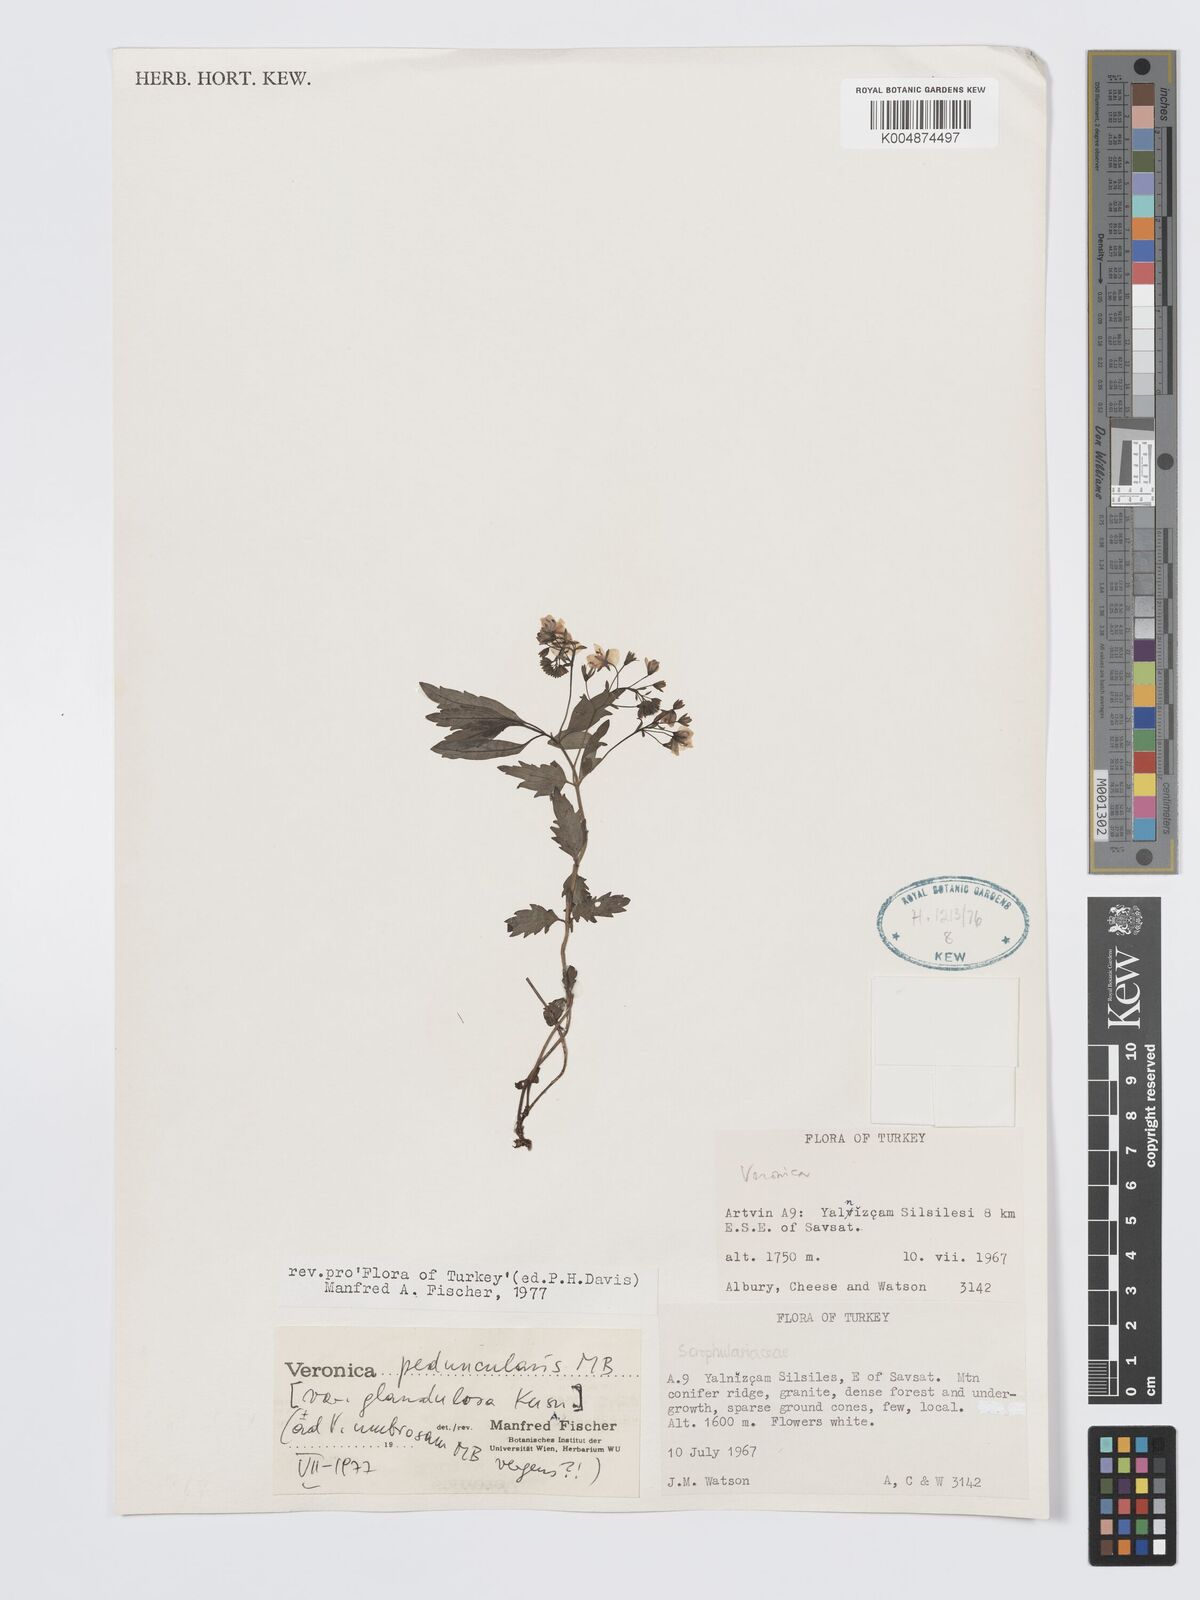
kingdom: Plantae
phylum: Tracheophyta
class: Magnoliopsida
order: Lamiales
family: Plantaginaceae
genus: Veronica
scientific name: Veronica
